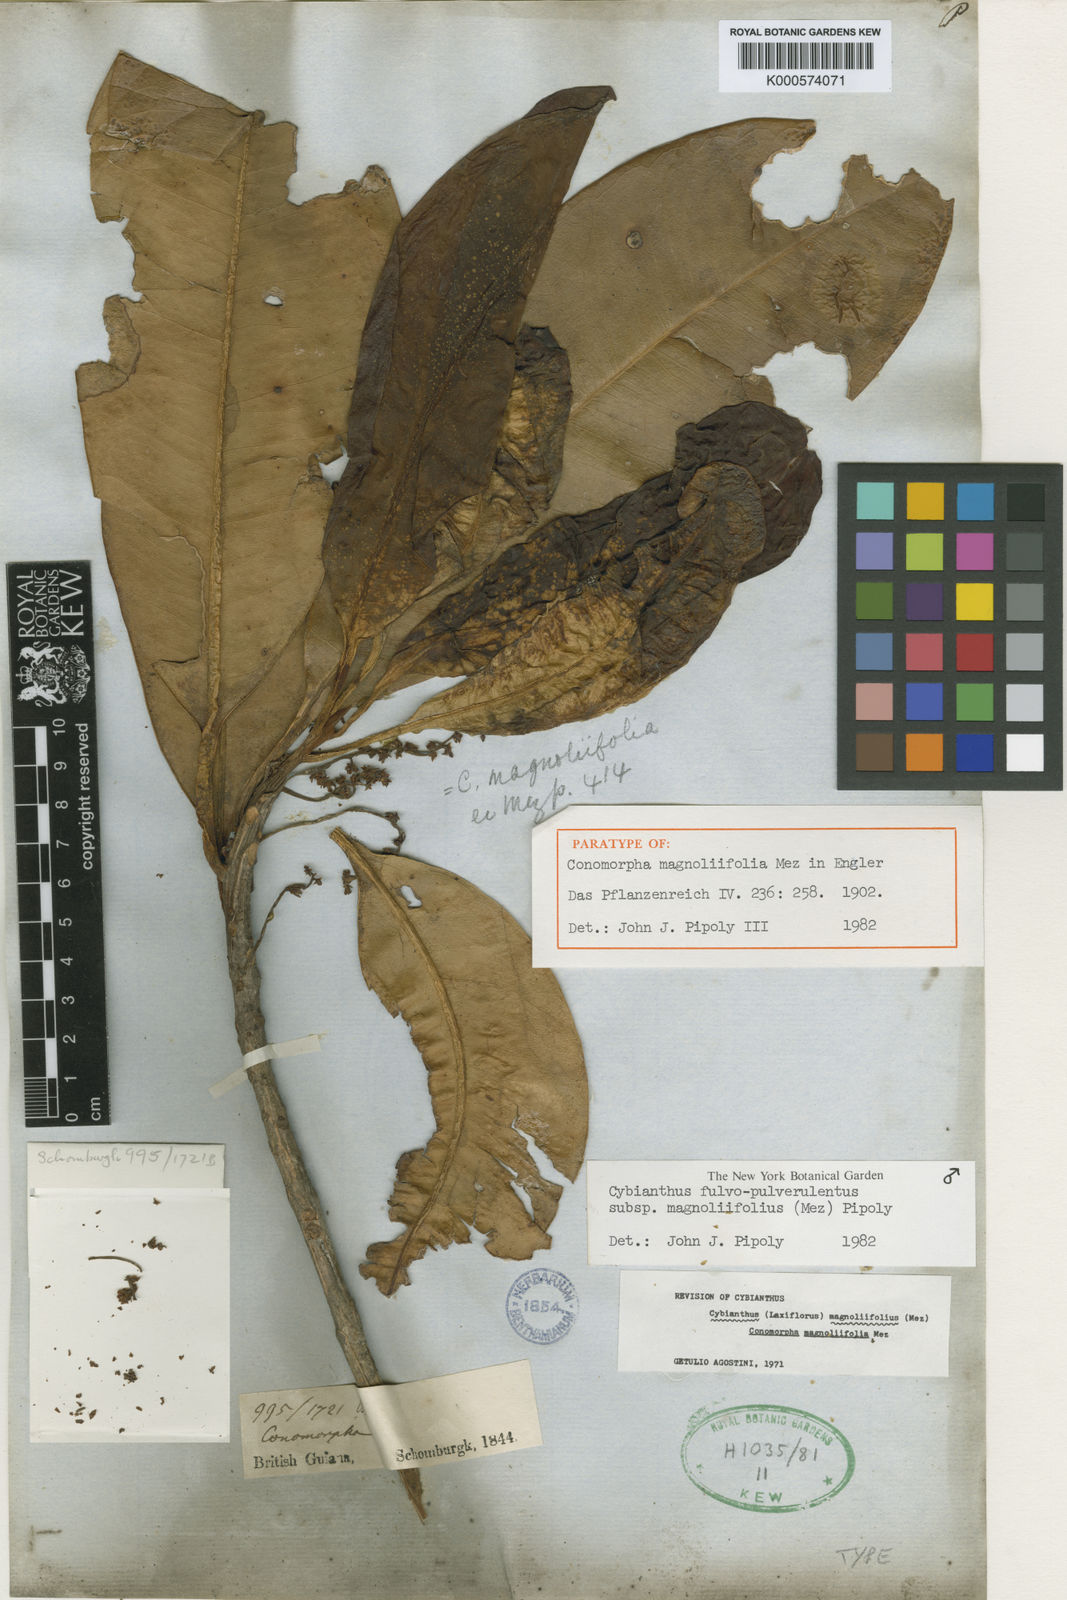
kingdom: Plantae
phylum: Tracheophyta
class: Magnoliopsida
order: Ericales
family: Primulaceae
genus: Cybianthus
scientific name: Cybianthus fulvopulverulentus
